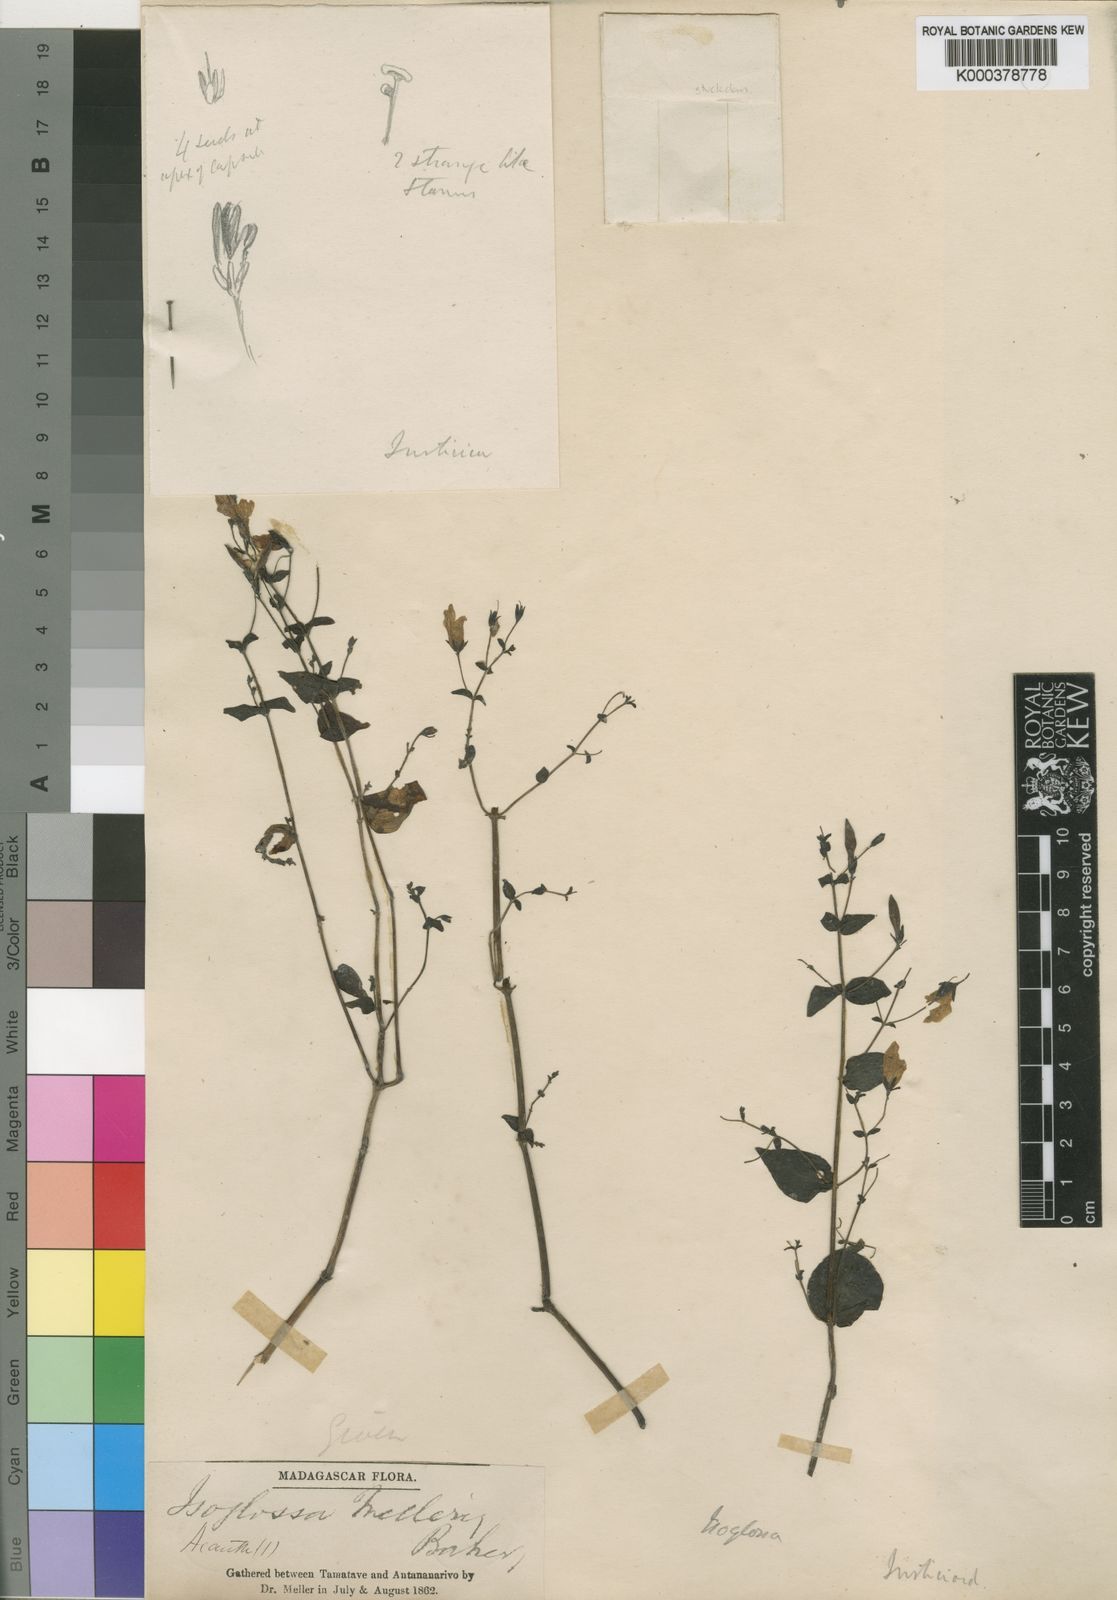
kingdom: Plantae
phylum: Tracheophyta
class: Magnoliopsida
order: Lamiales
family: Acanthaceae
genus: Isoglossa
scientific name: Isoglossa melleri
